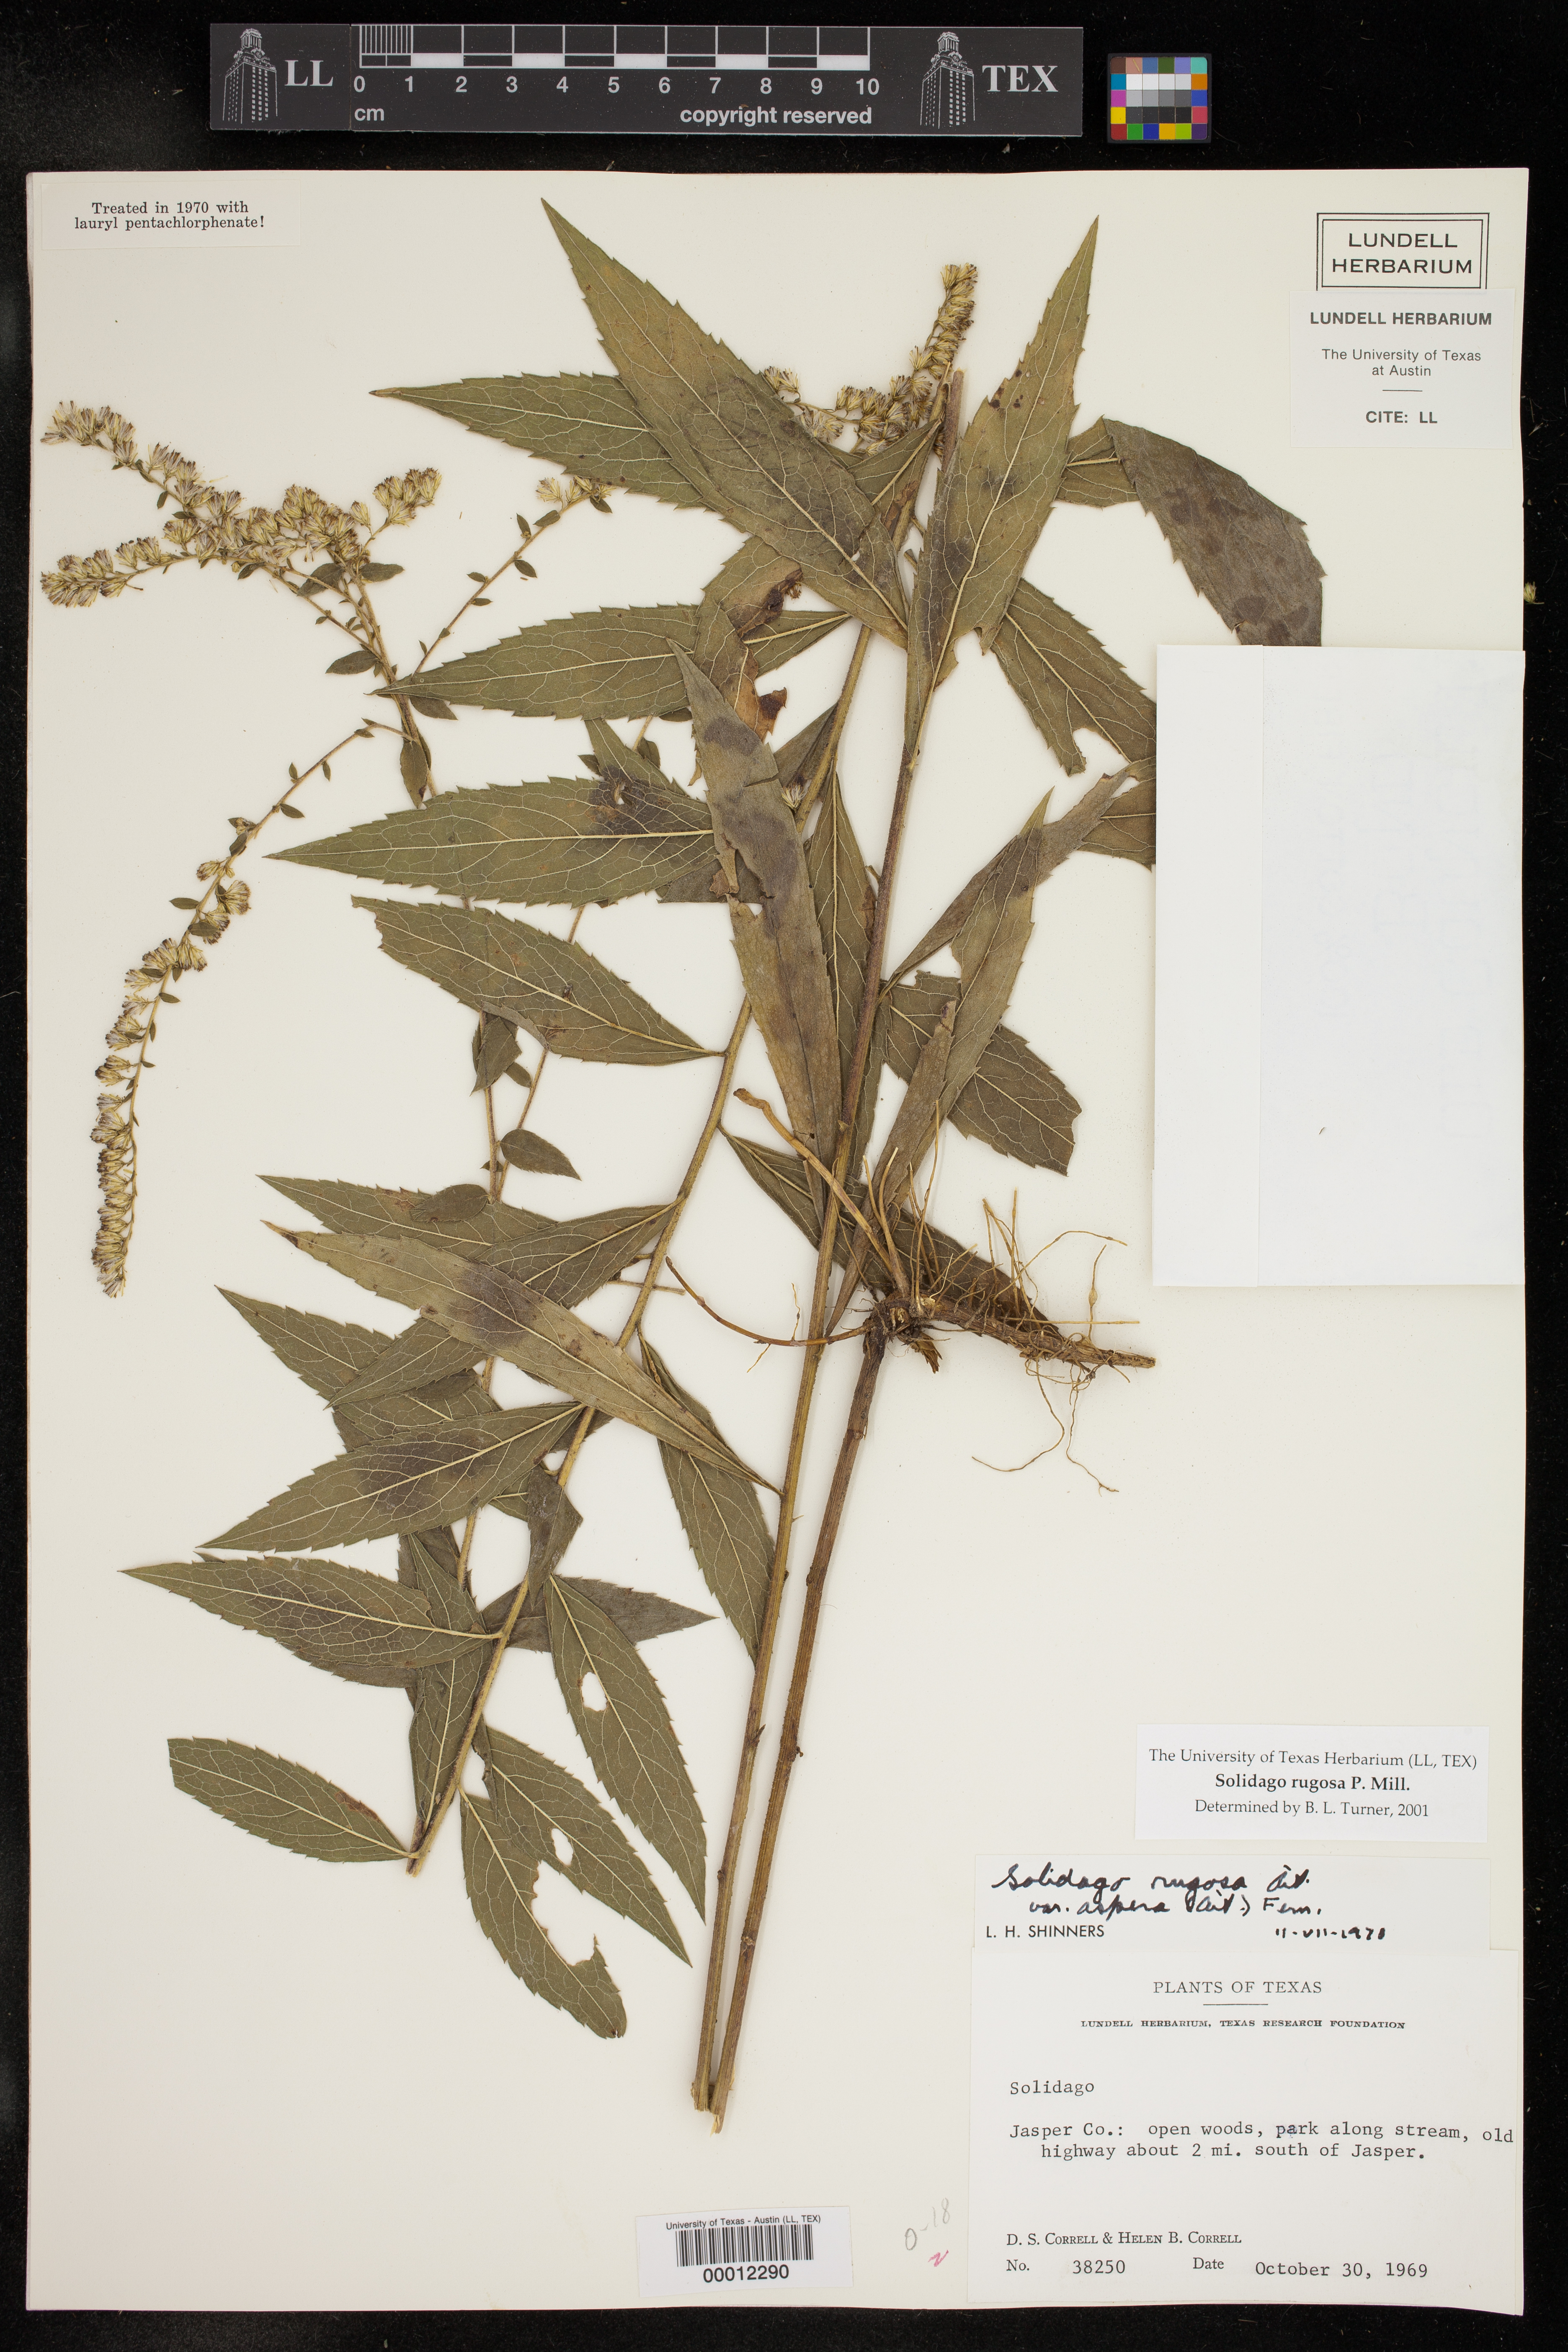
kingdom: Plantae
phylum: Tracheophyta
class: Magnoliopsida
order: Asterales
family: Asteraceae
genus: Solidago
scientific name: Solidago rugosa
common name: Rough-stemmed goldenrod
